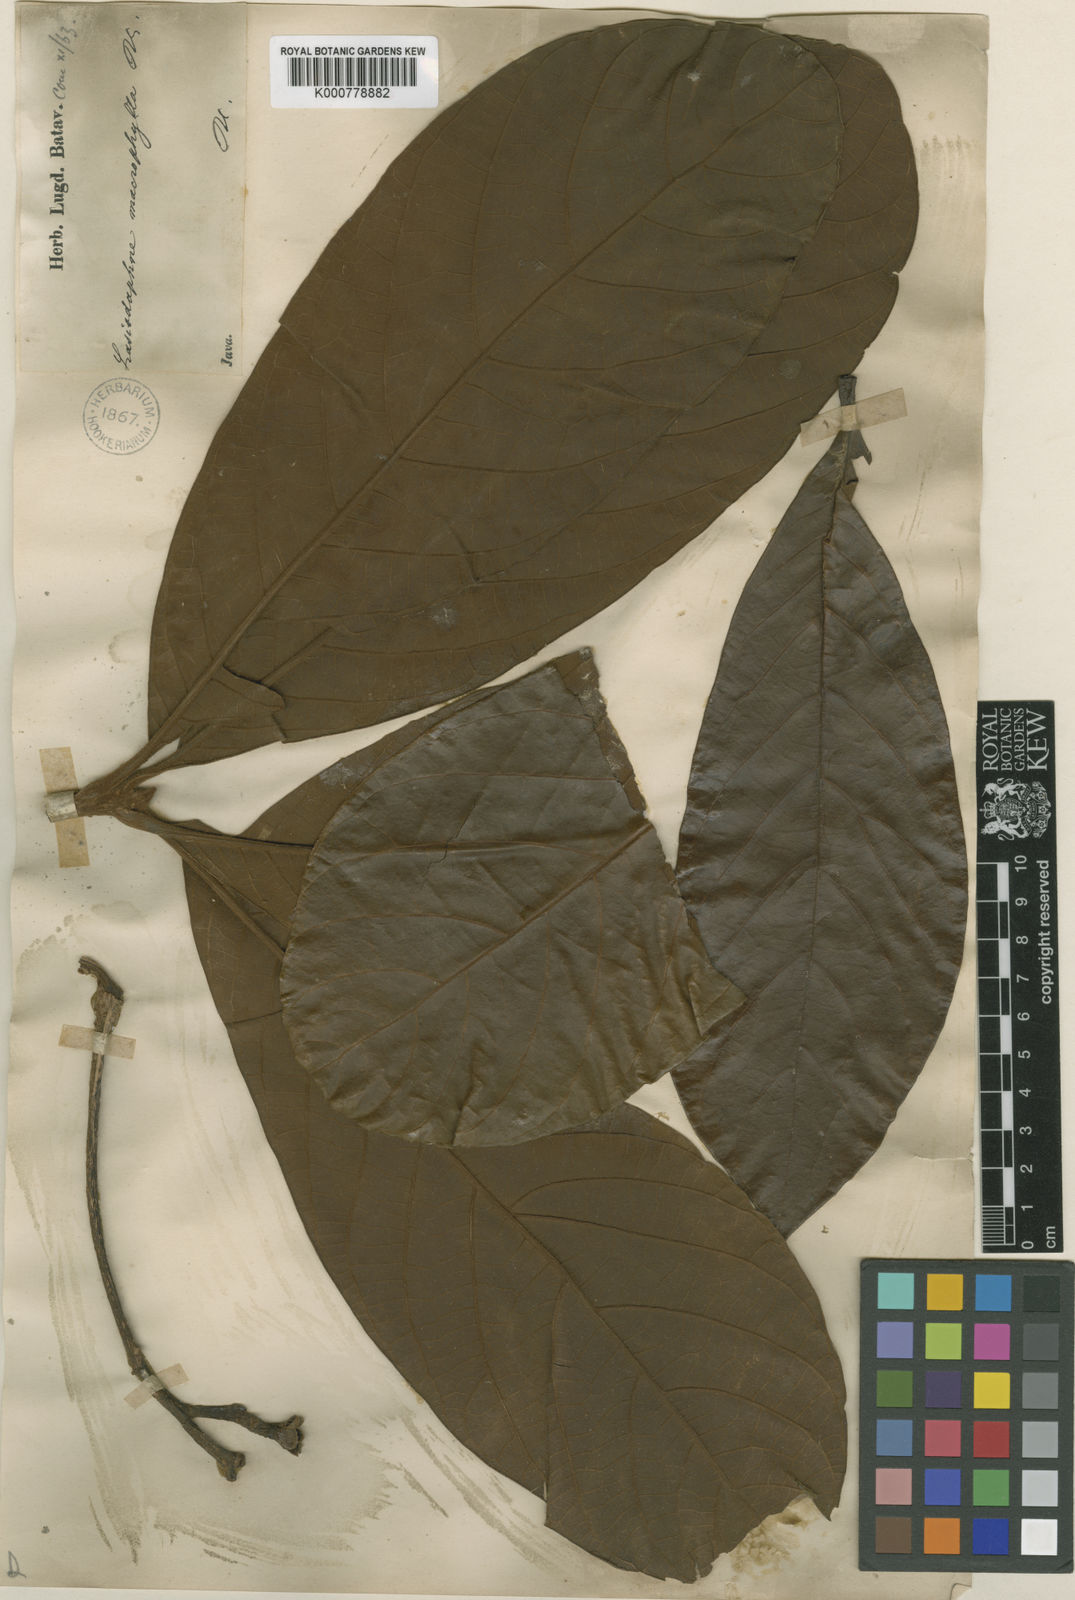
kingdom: Plantae
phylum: Tracheophyta
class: Magnoliopsida
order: Laurales
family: Lauraceae
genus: Phoebe
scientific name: Phoebe macrophylla
